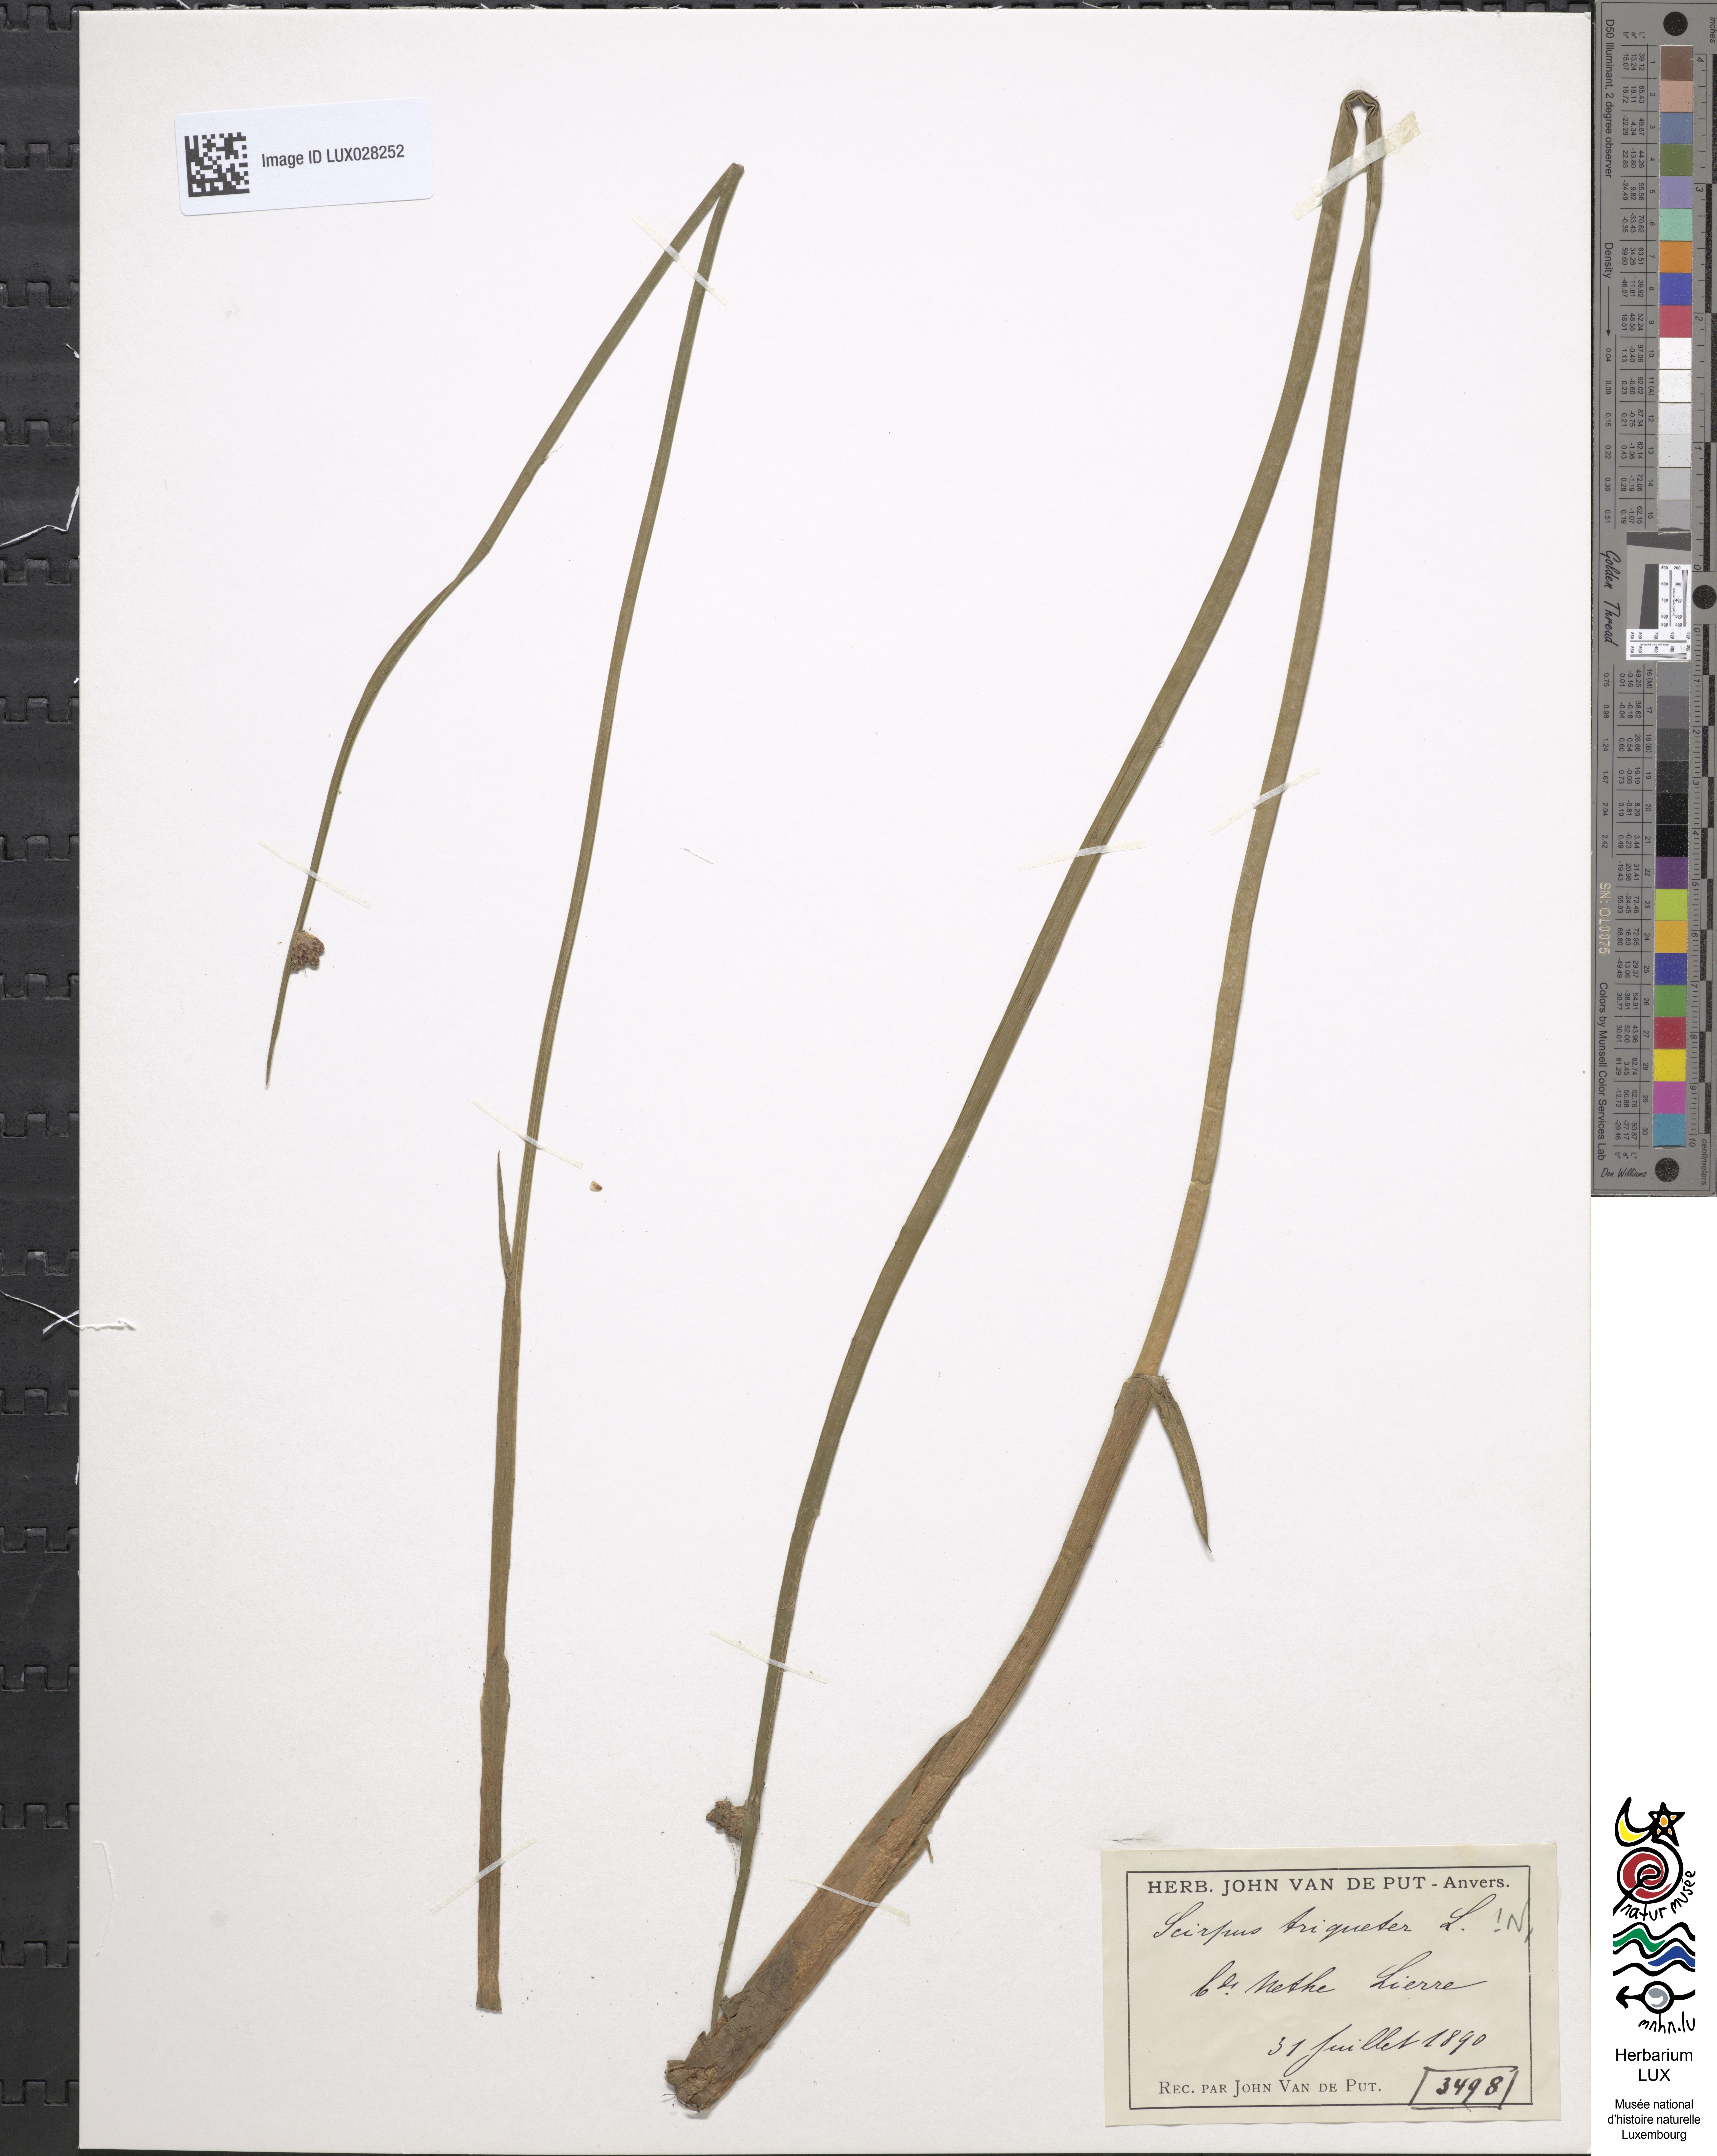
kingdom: Plantae
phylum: Tracheophyta
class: Liliopsida
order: Poales
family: Cyperaceae
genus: Schoenoplectus
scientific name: Schoenoplectus triqueter
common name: Triangular club-rush
